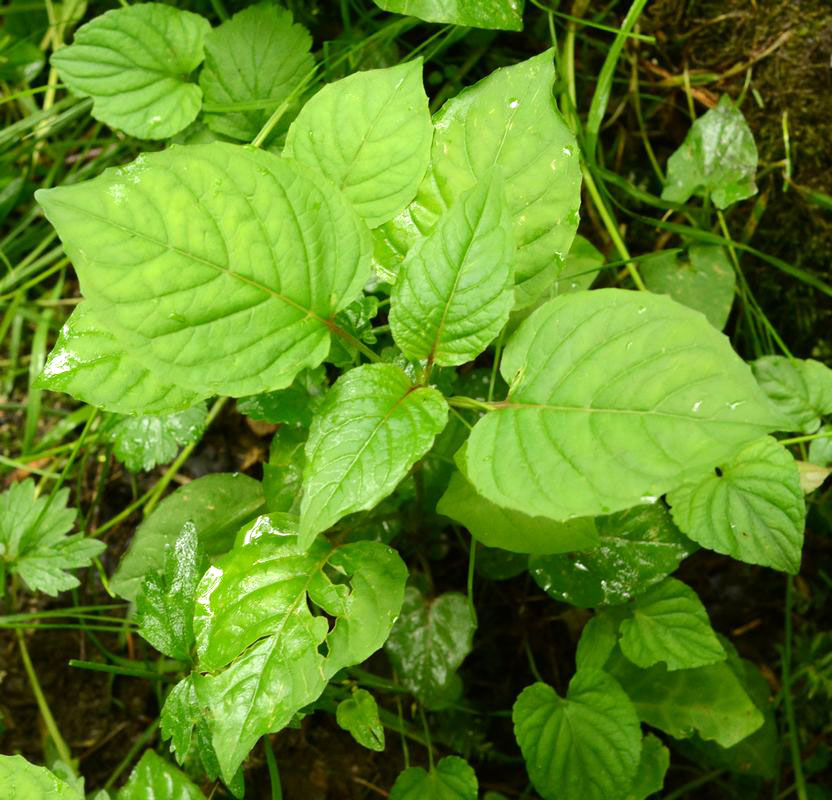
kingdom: Plantae
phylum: Tracheophyta
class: Magnoliopsida
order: Myrtales
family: Onagraceae
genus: Circaea
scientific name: Circaea lutetiana
